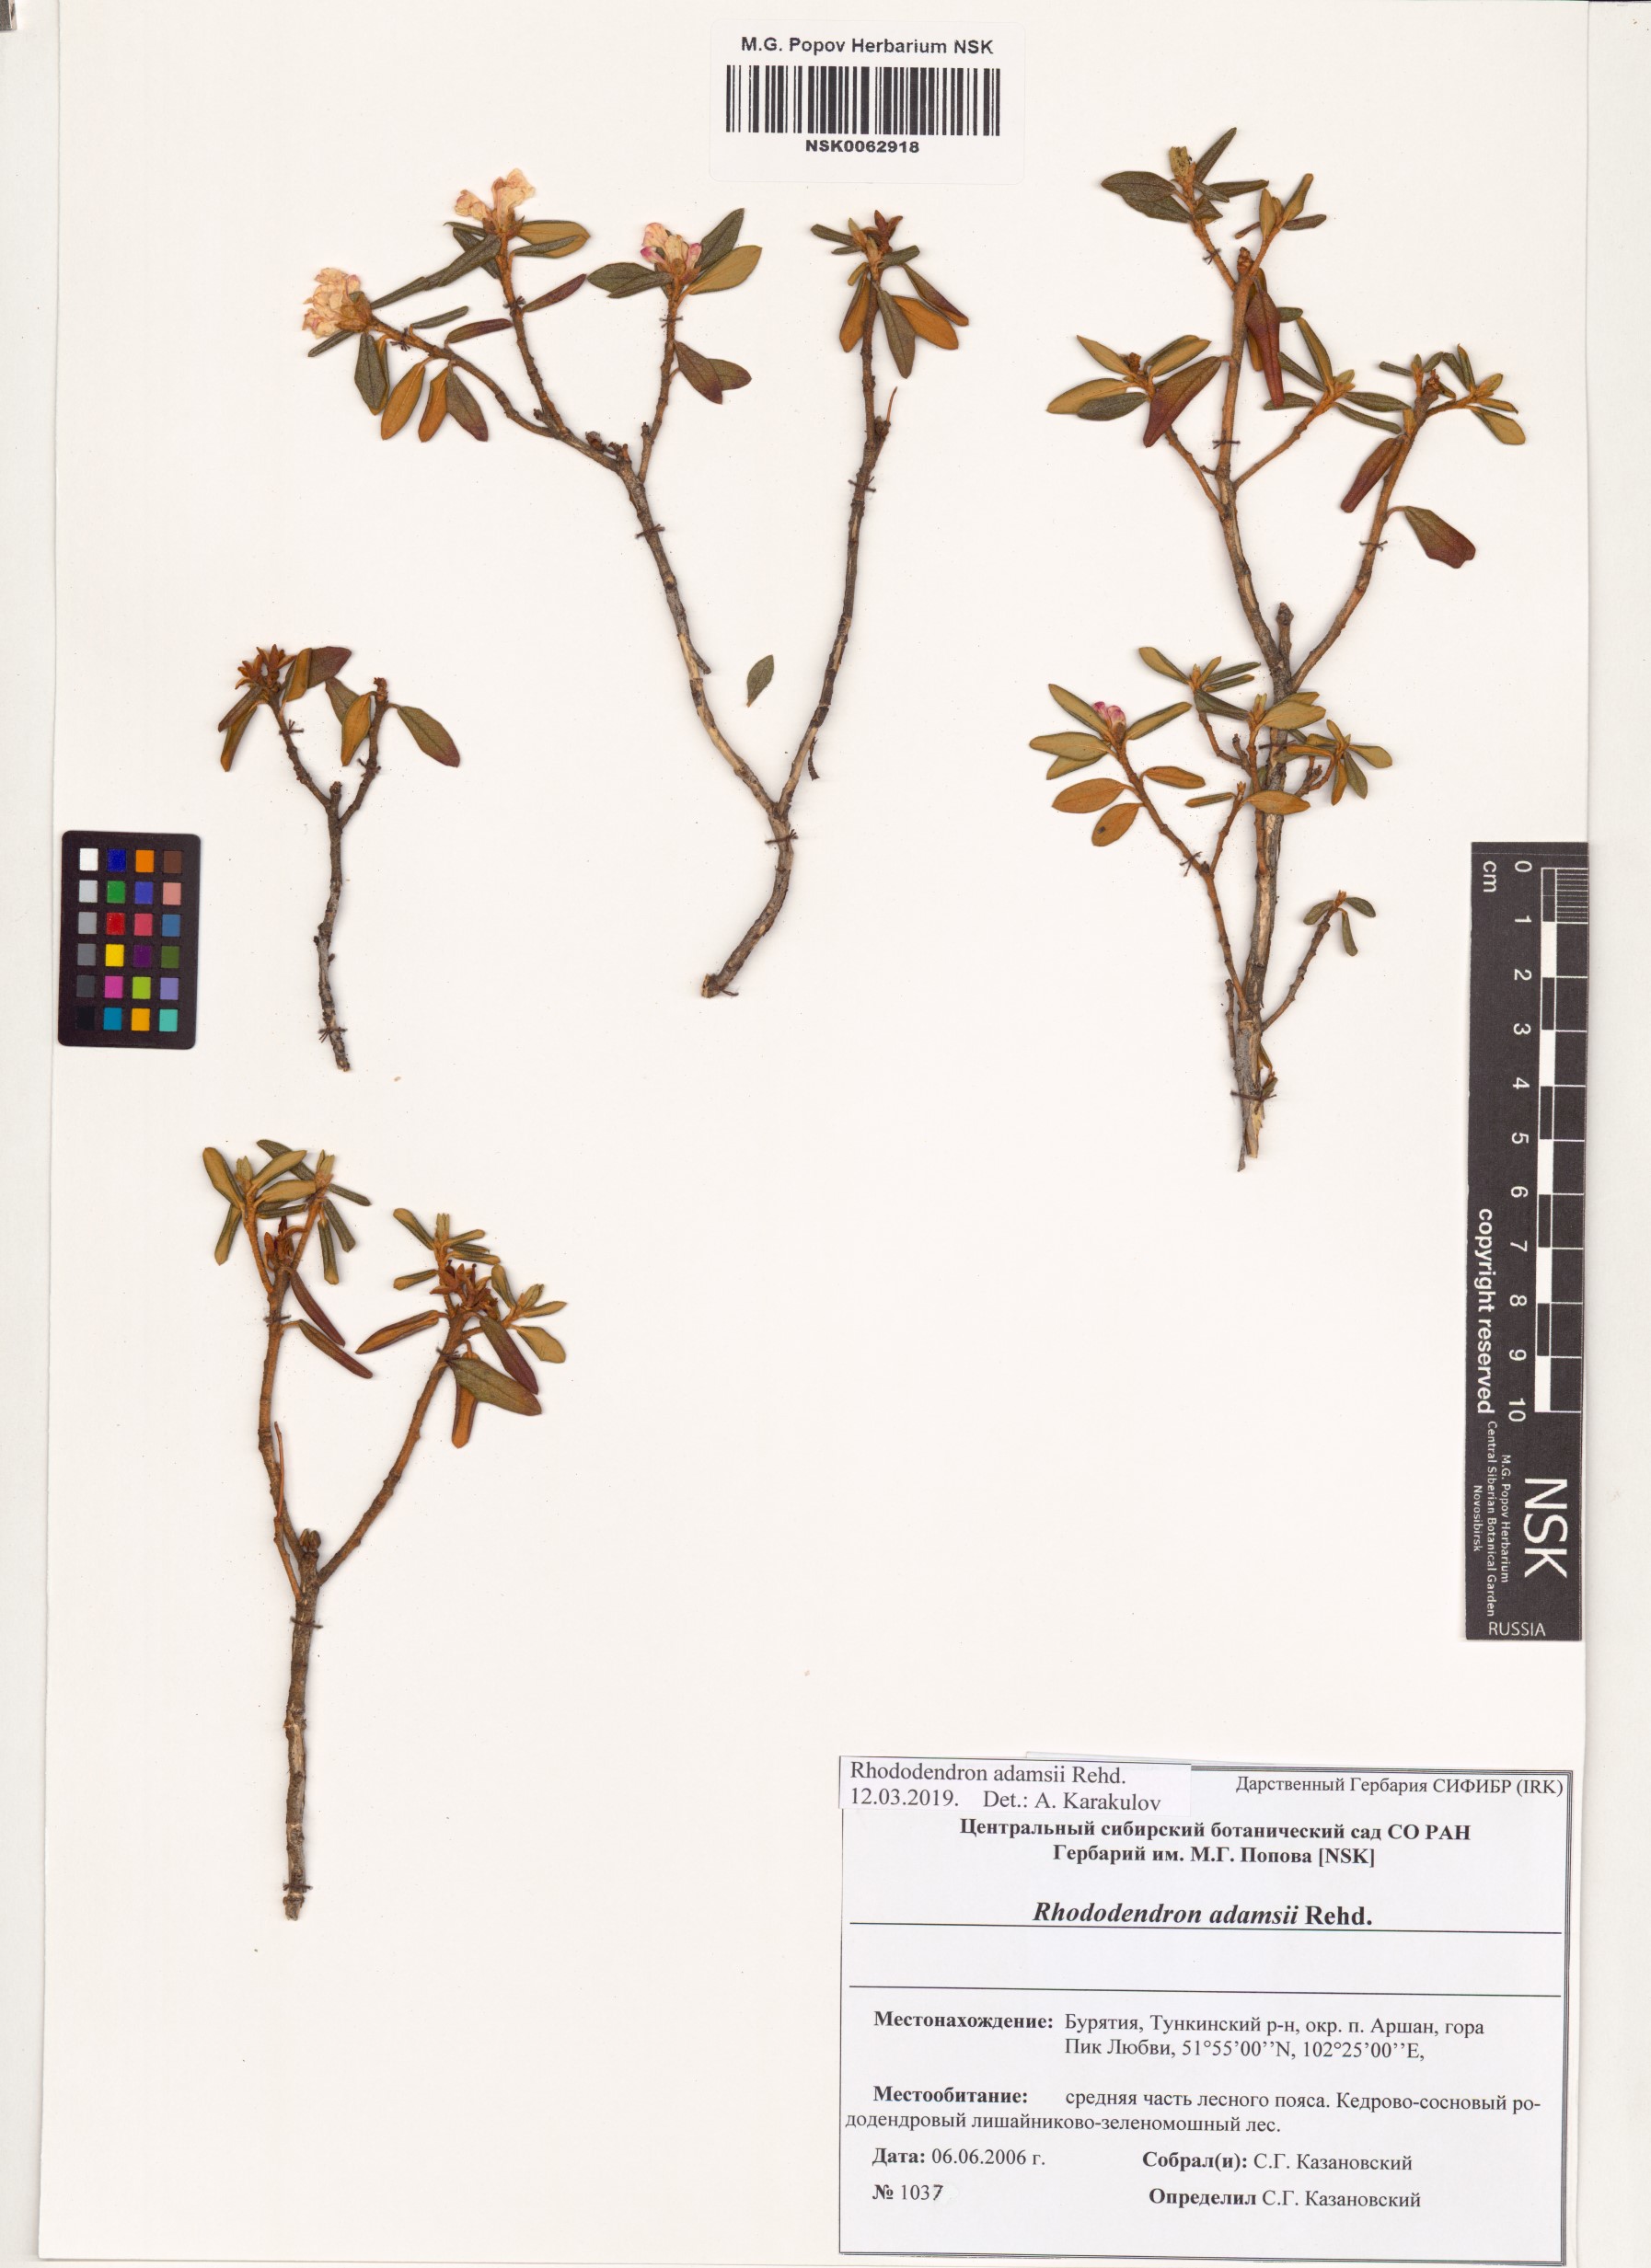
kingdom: Plantae
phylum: Tracheophyta
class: Magnoliopsida
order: Ericales
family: Ericaceae
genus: Rhododendron
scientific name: Rhododendron adamsii
